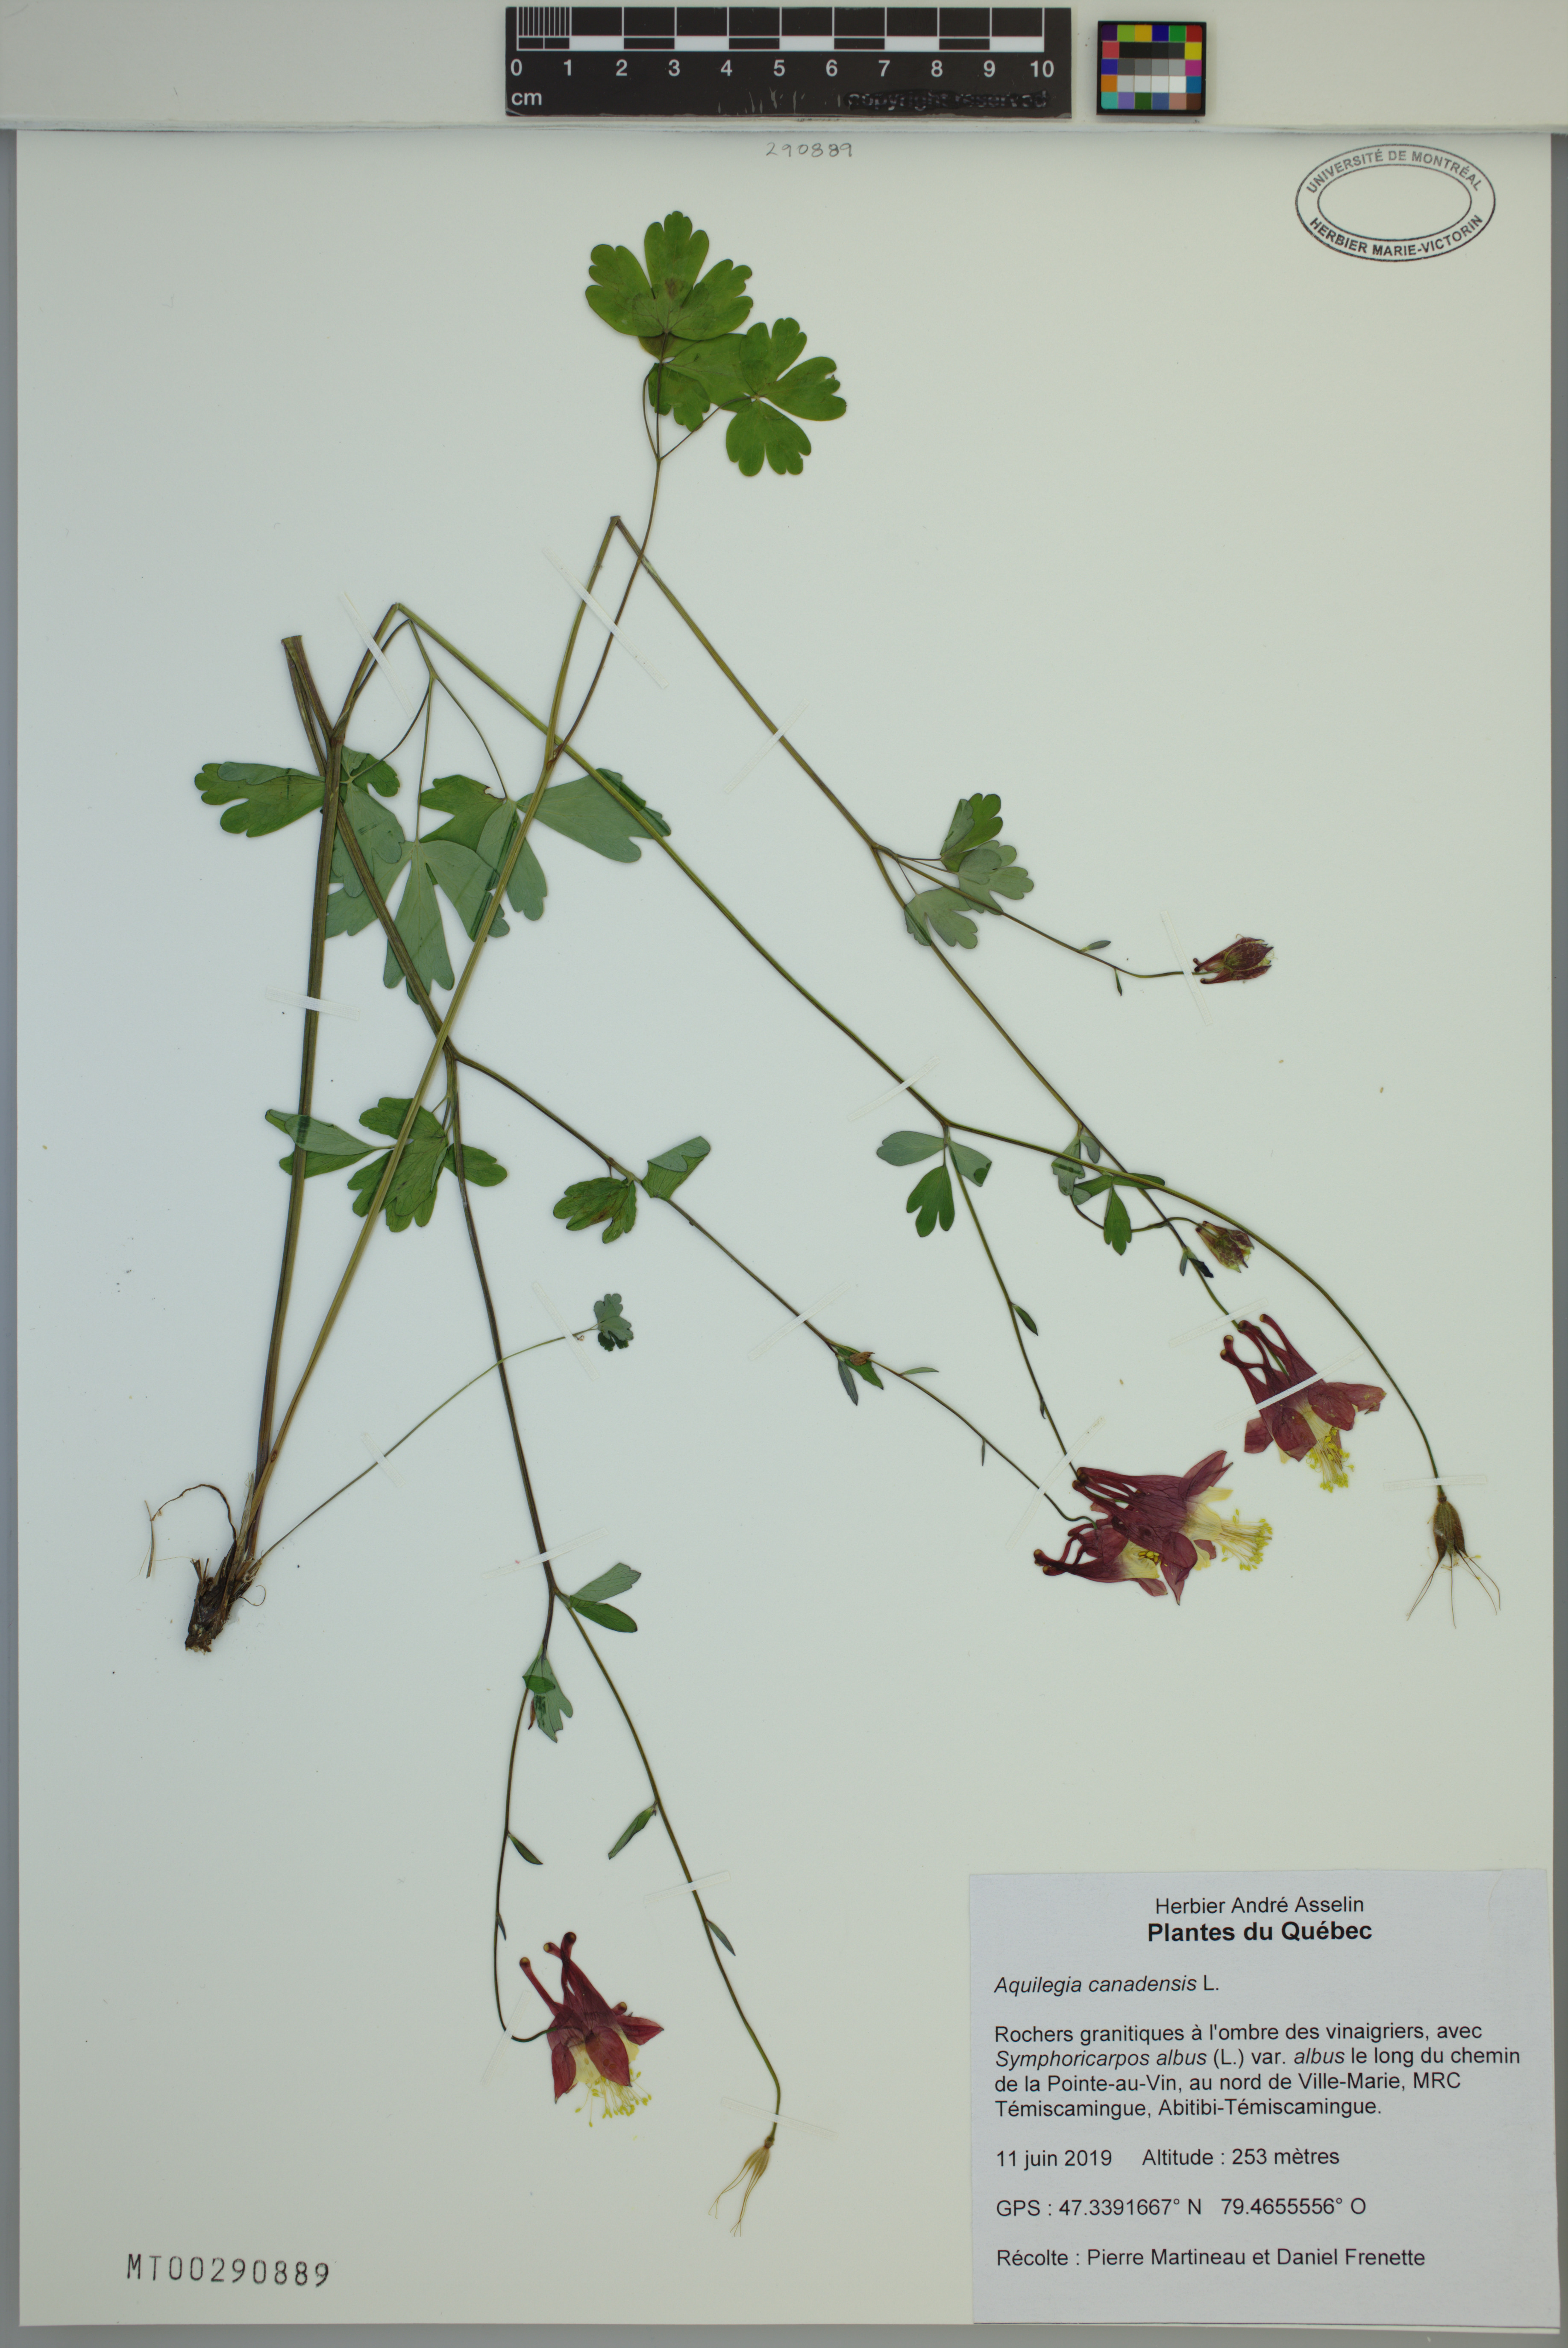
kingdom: Plantae
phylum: Tracheophyta
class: Magnoliopsida
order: Ranunculales
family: Ranunculaceae
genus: Aquilegia
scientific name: Aquilegia canadensis
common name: American columbine
